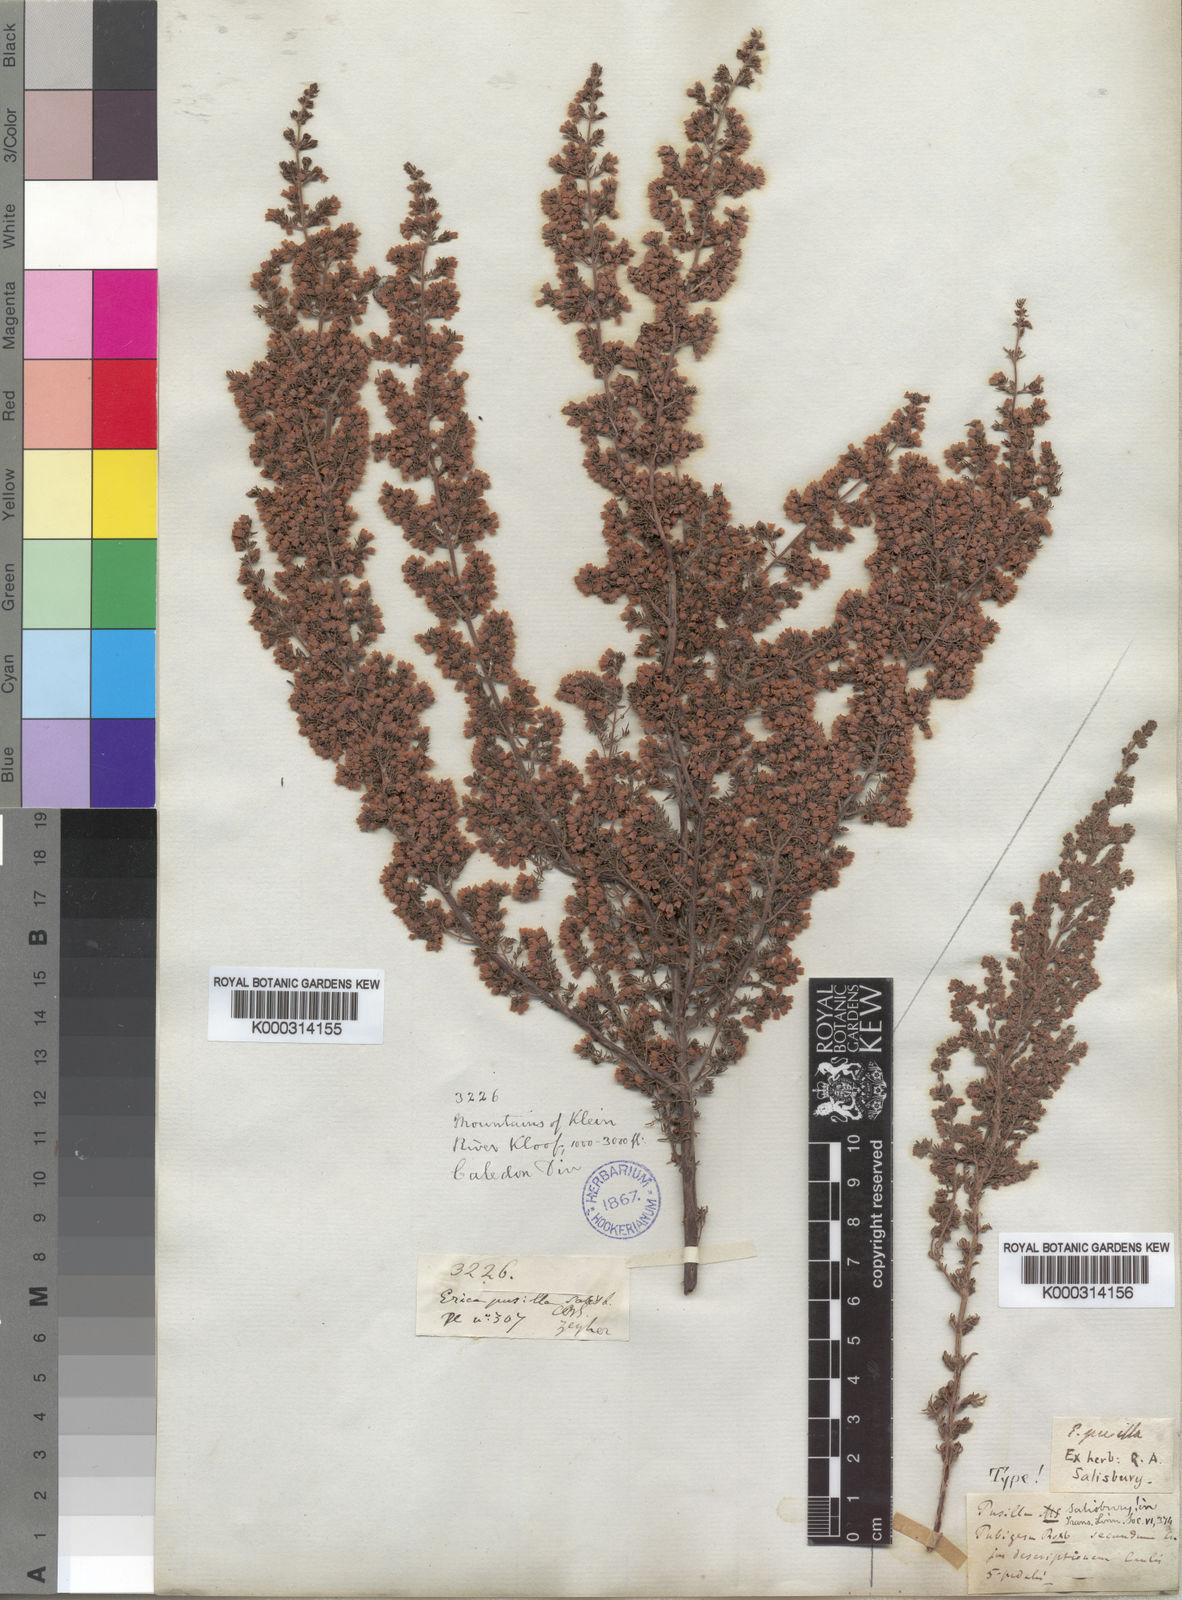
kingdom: Plantae
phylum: Tracheophyta
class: Magnoliopsida
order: Ericales
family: Ericaceae
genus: Erica
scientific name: Erica canescens
